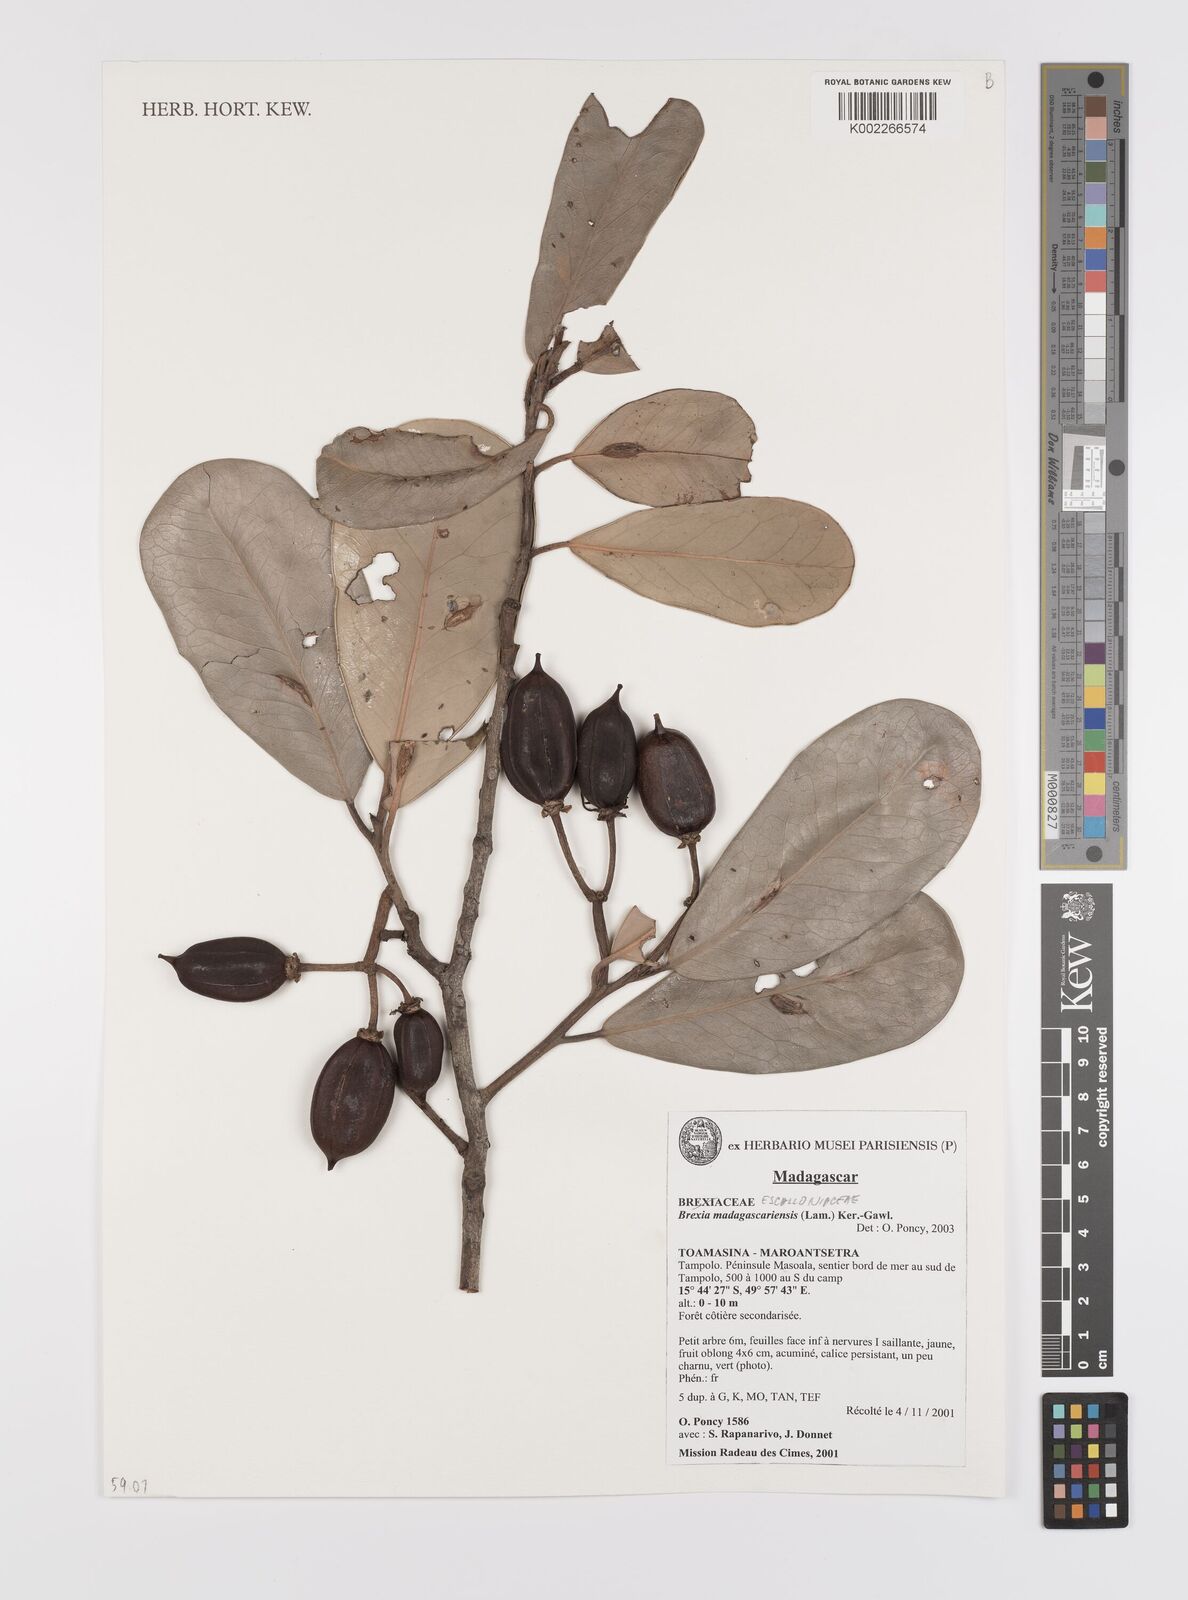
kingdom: Plantae
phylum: Tracheophyta
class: Magnoliopsida
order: Celastrales
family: Celastraceae
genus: Brexia
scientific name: Brexia madagascariensis
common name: Brexia
